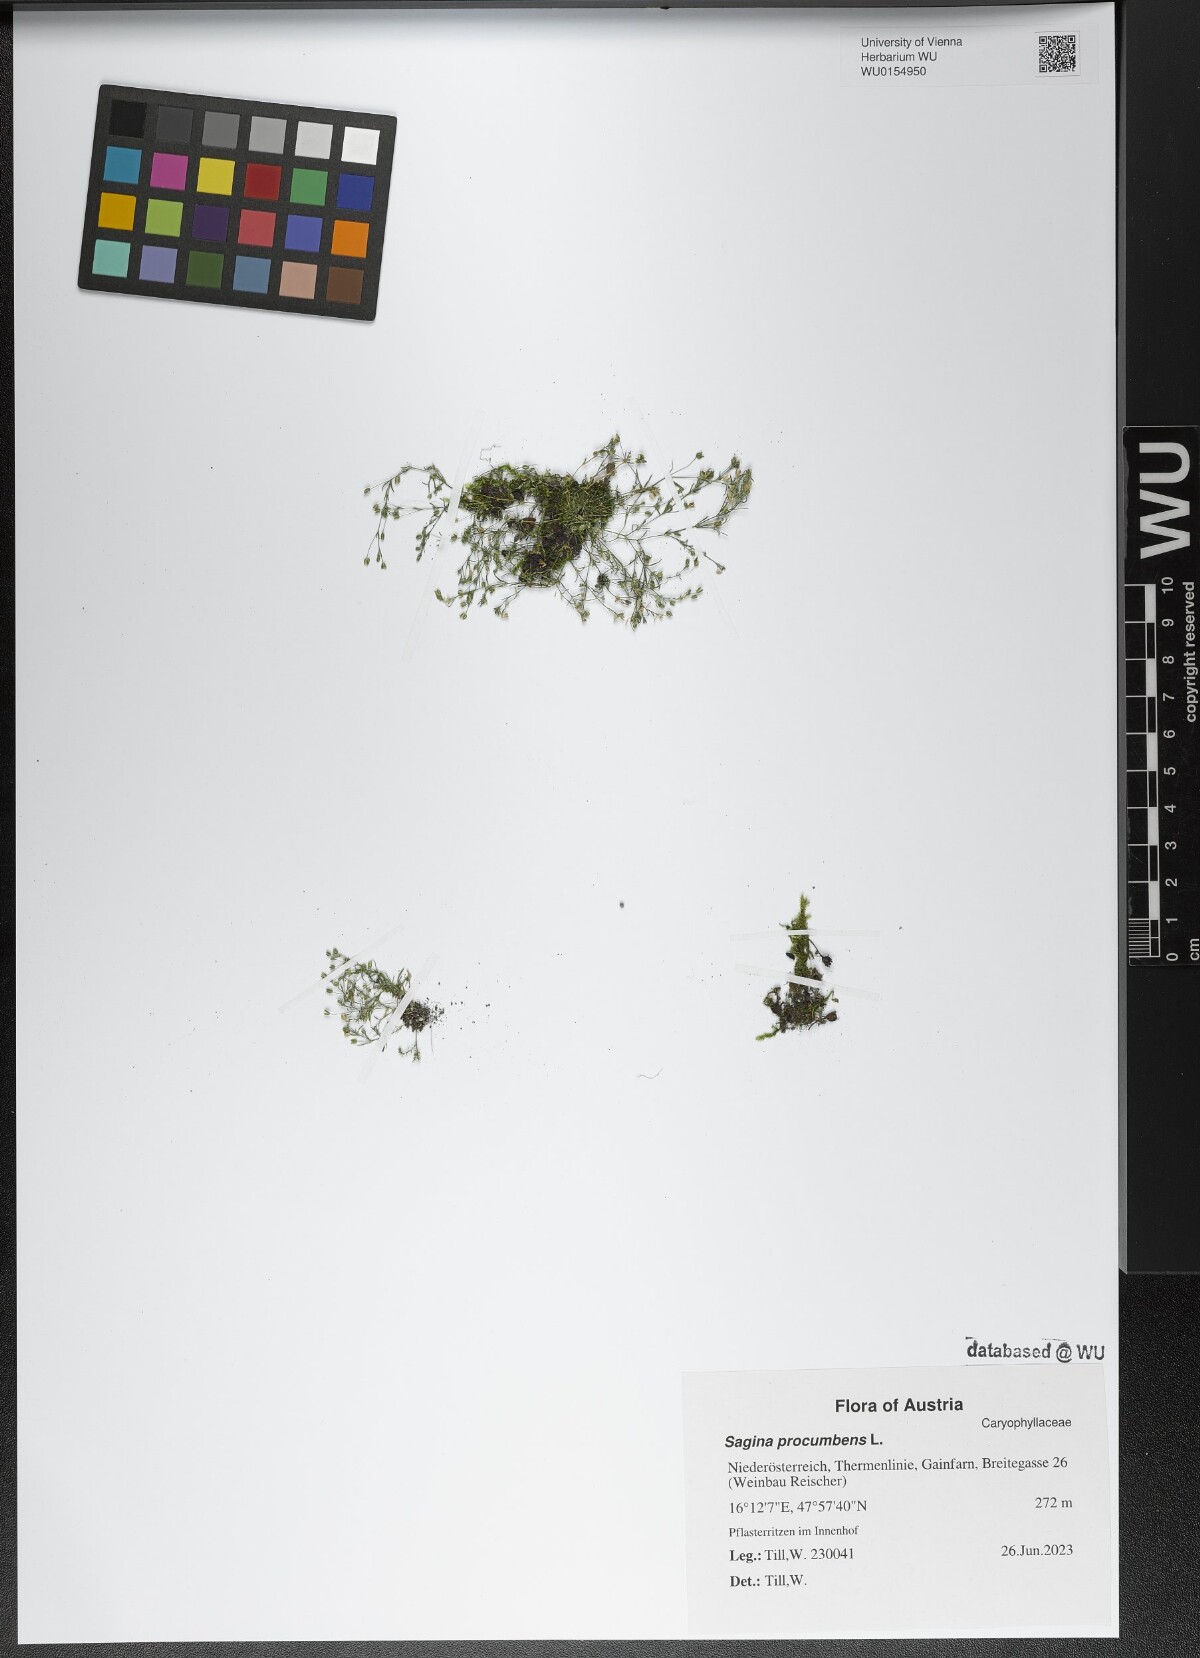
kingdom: Plantae
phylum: Tracheophyta
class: Magnoliopsida
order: Caryophyllales
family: Caryophyllaceae
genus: Sagina
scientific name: Sagina procumbens
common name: Procumbent pearlwort
